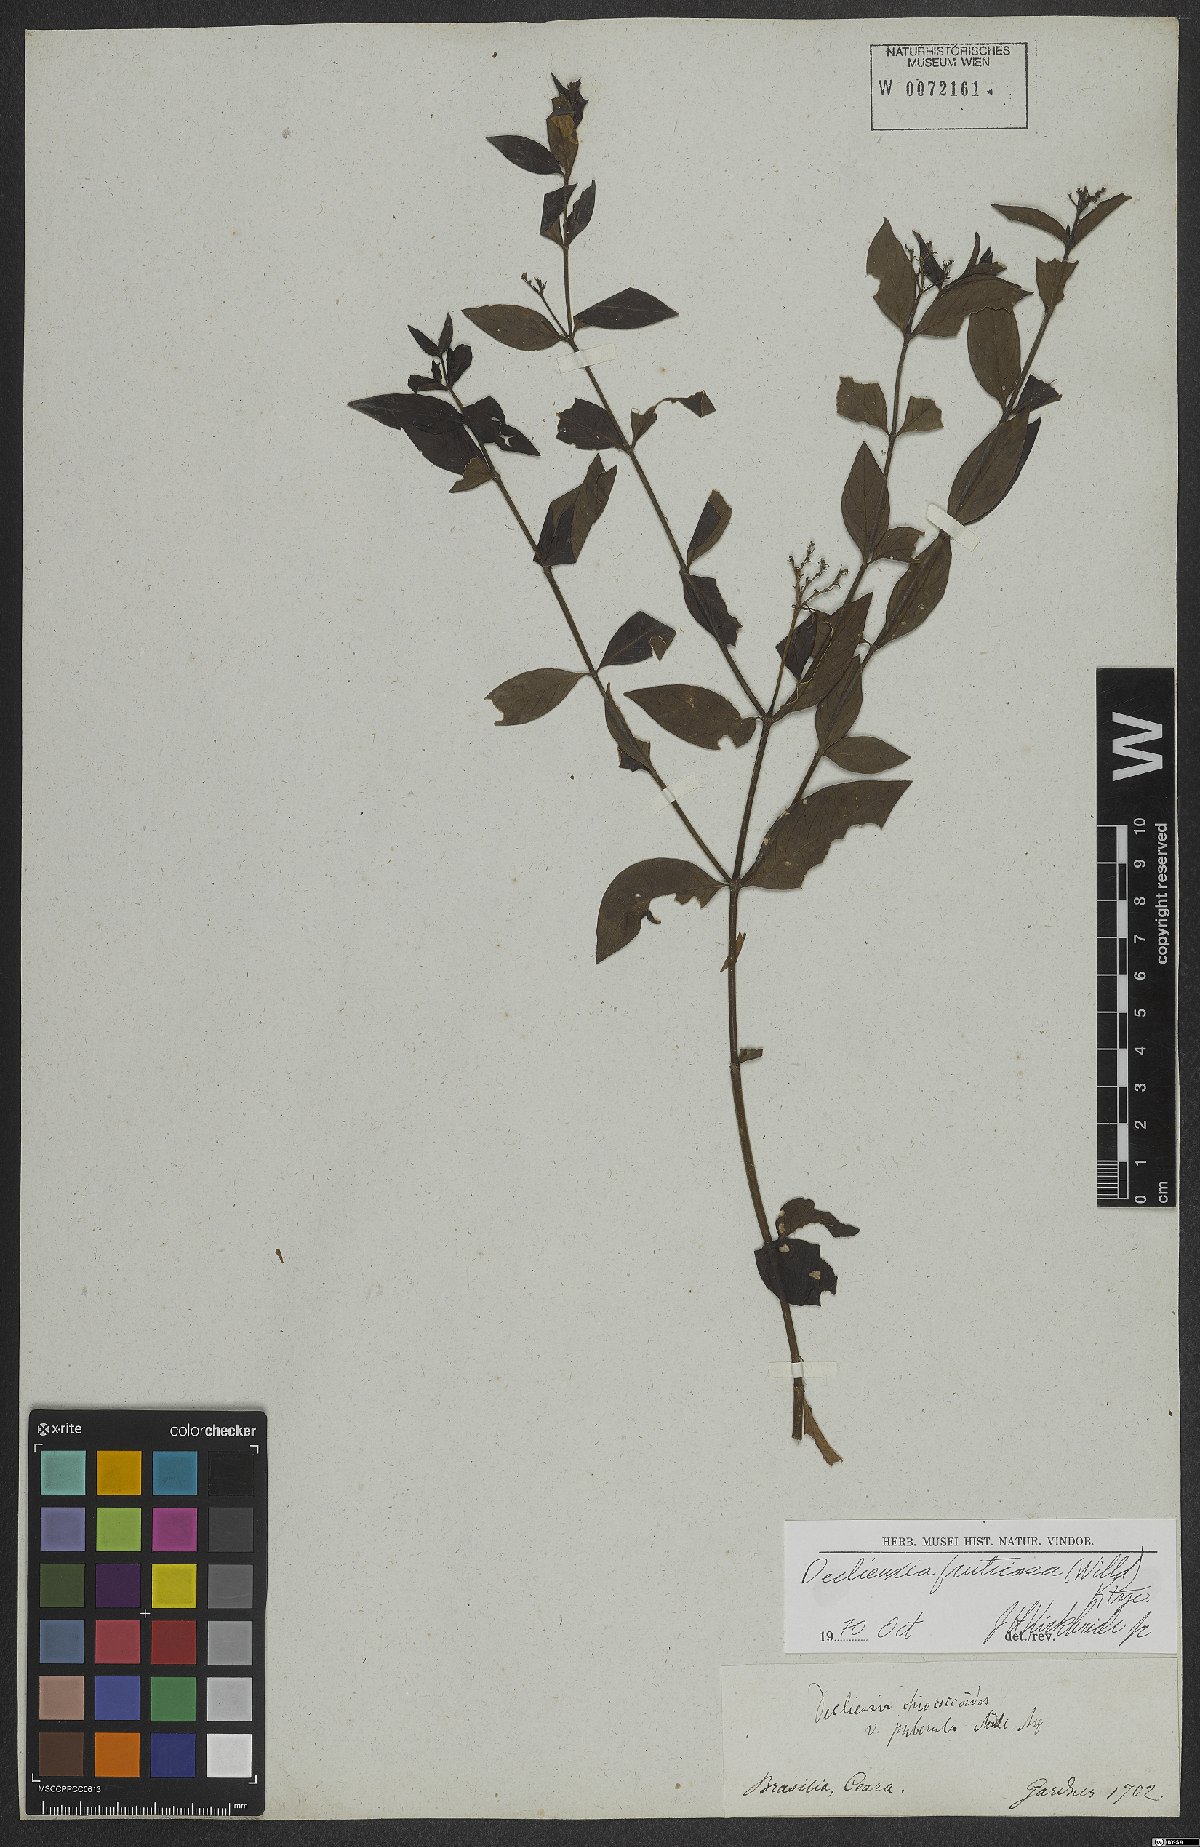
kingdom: Plantae
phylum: Tracheophyta
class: Magnoliopsida
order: Gentianales
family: Rubiaceae
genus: Declieuxia
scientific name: Declieuxia fruticosa
